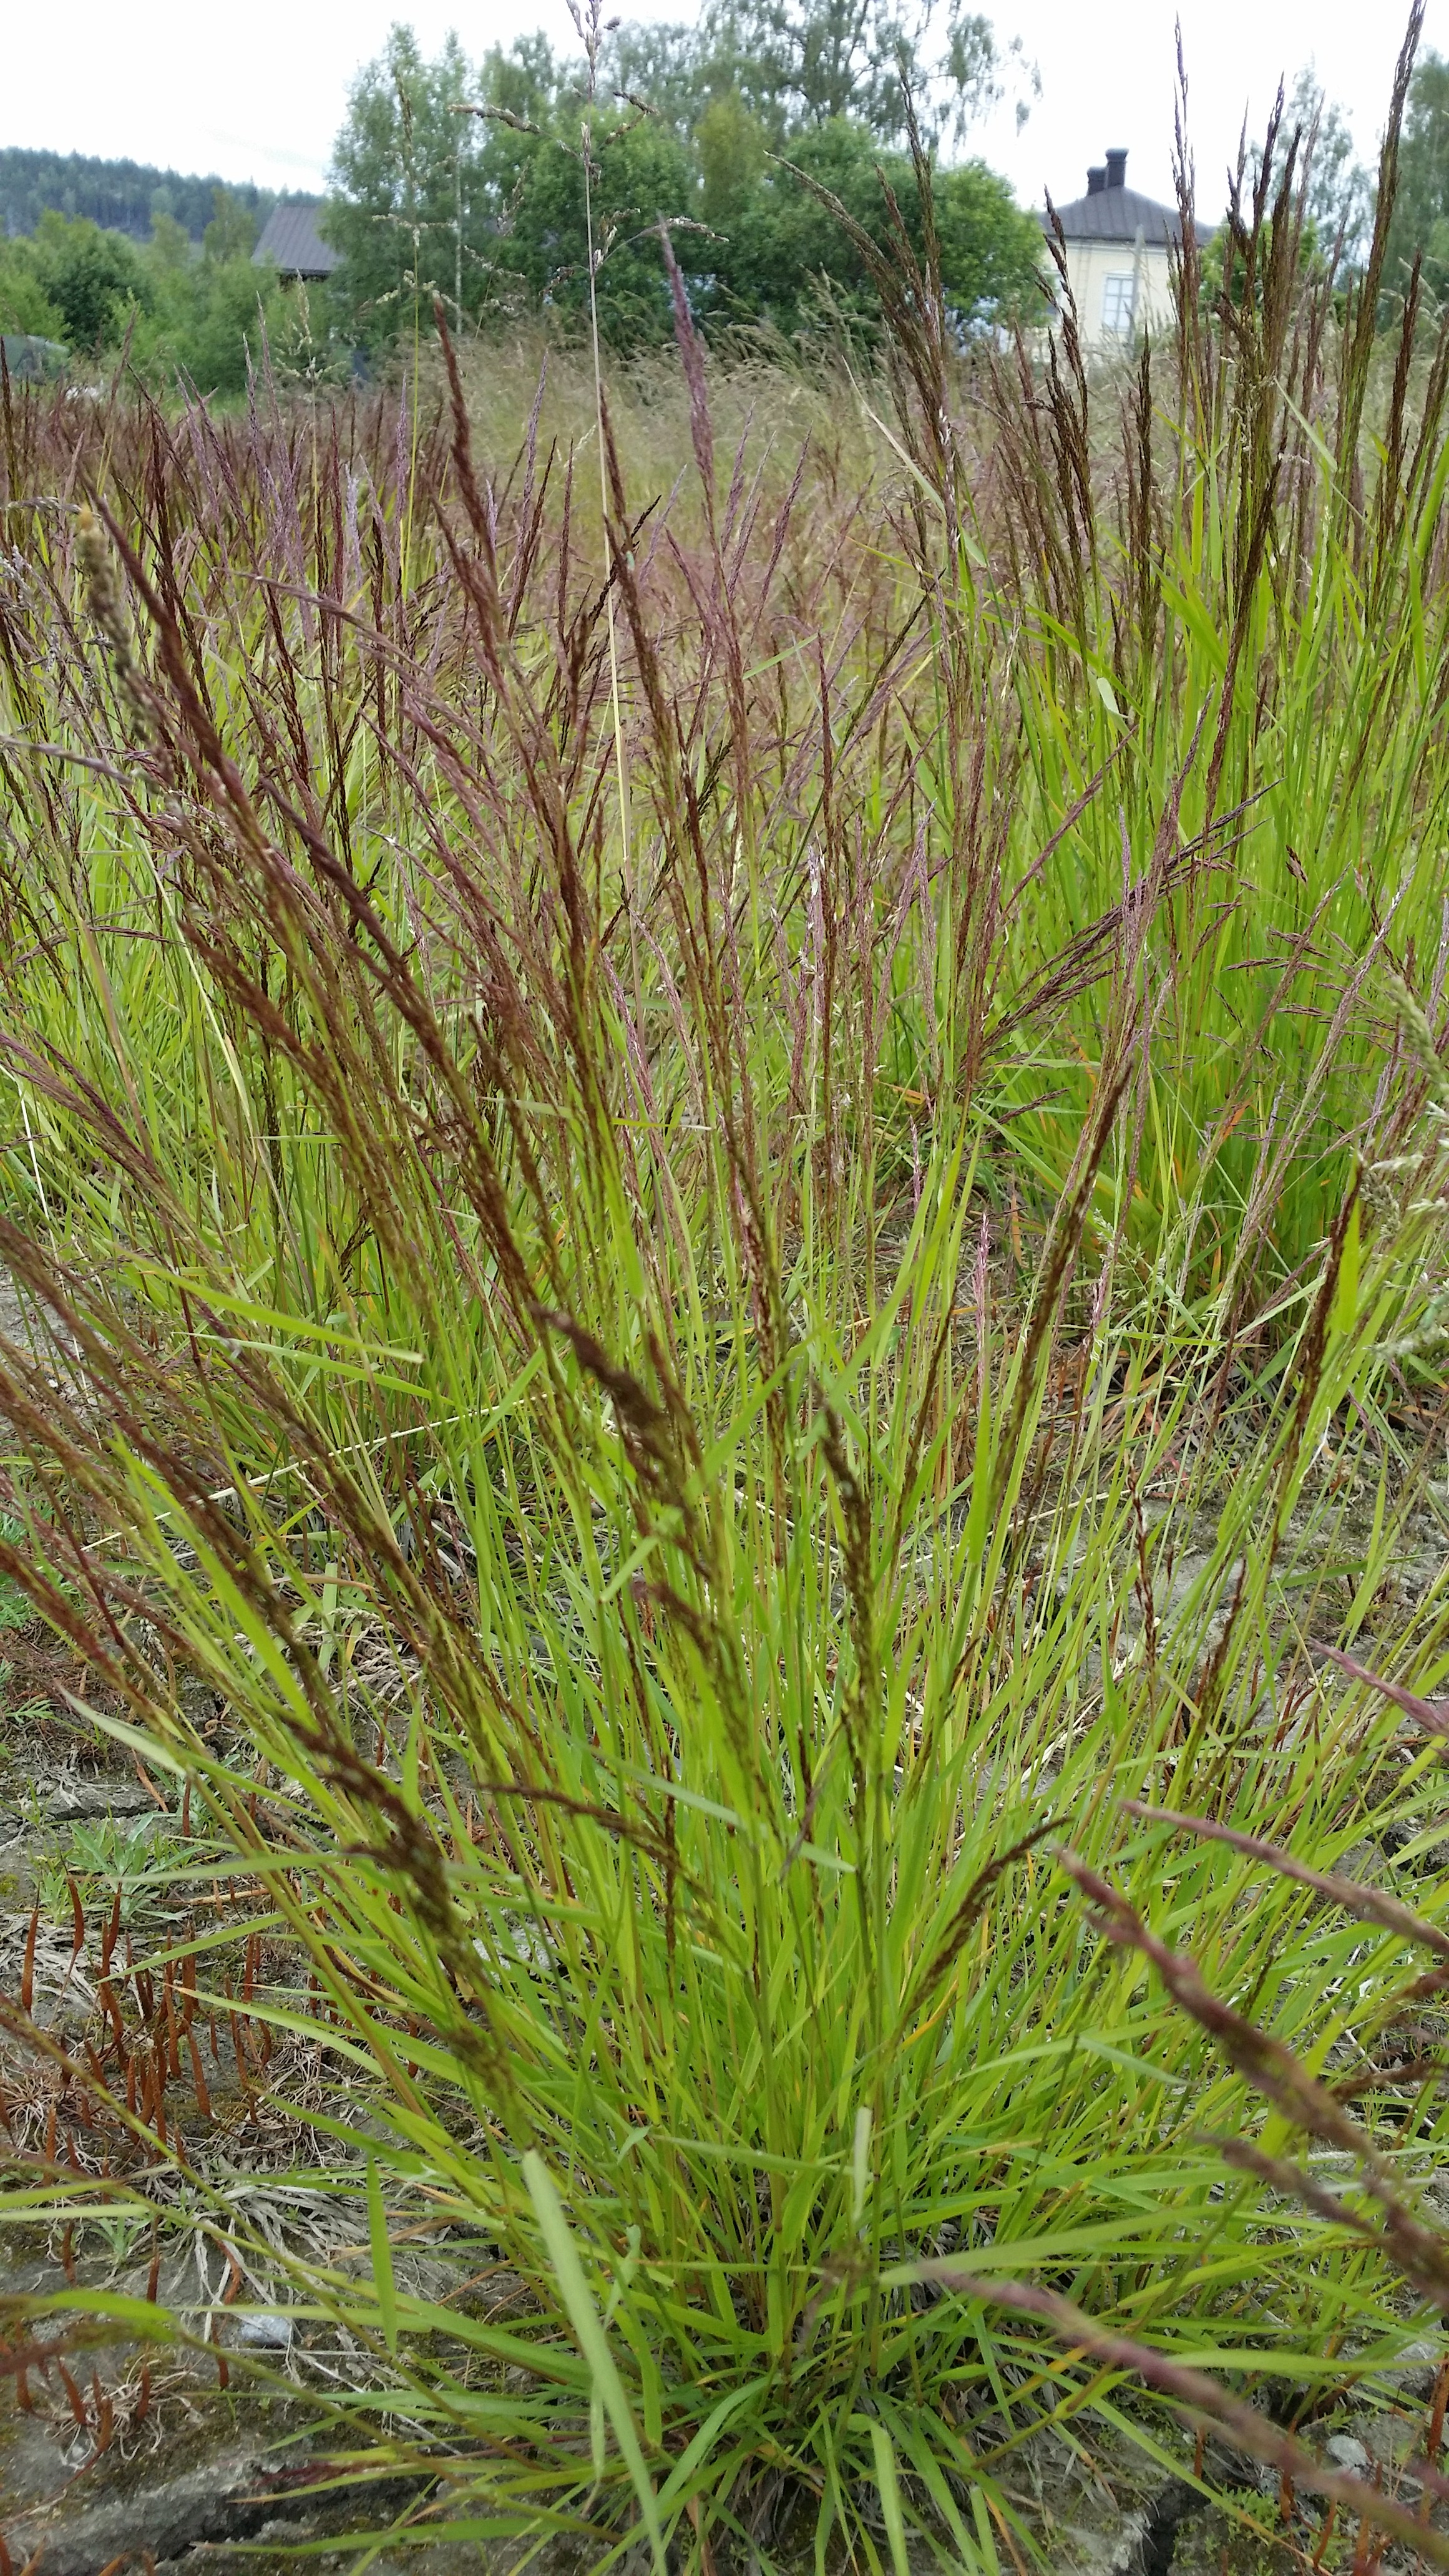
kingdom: Plantae
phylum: Tracheophyta
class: Liliopsida
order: Poales
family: Poaceae
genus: Agrostis
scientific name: Agrostis capillaris
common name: Colonial bentgrass
